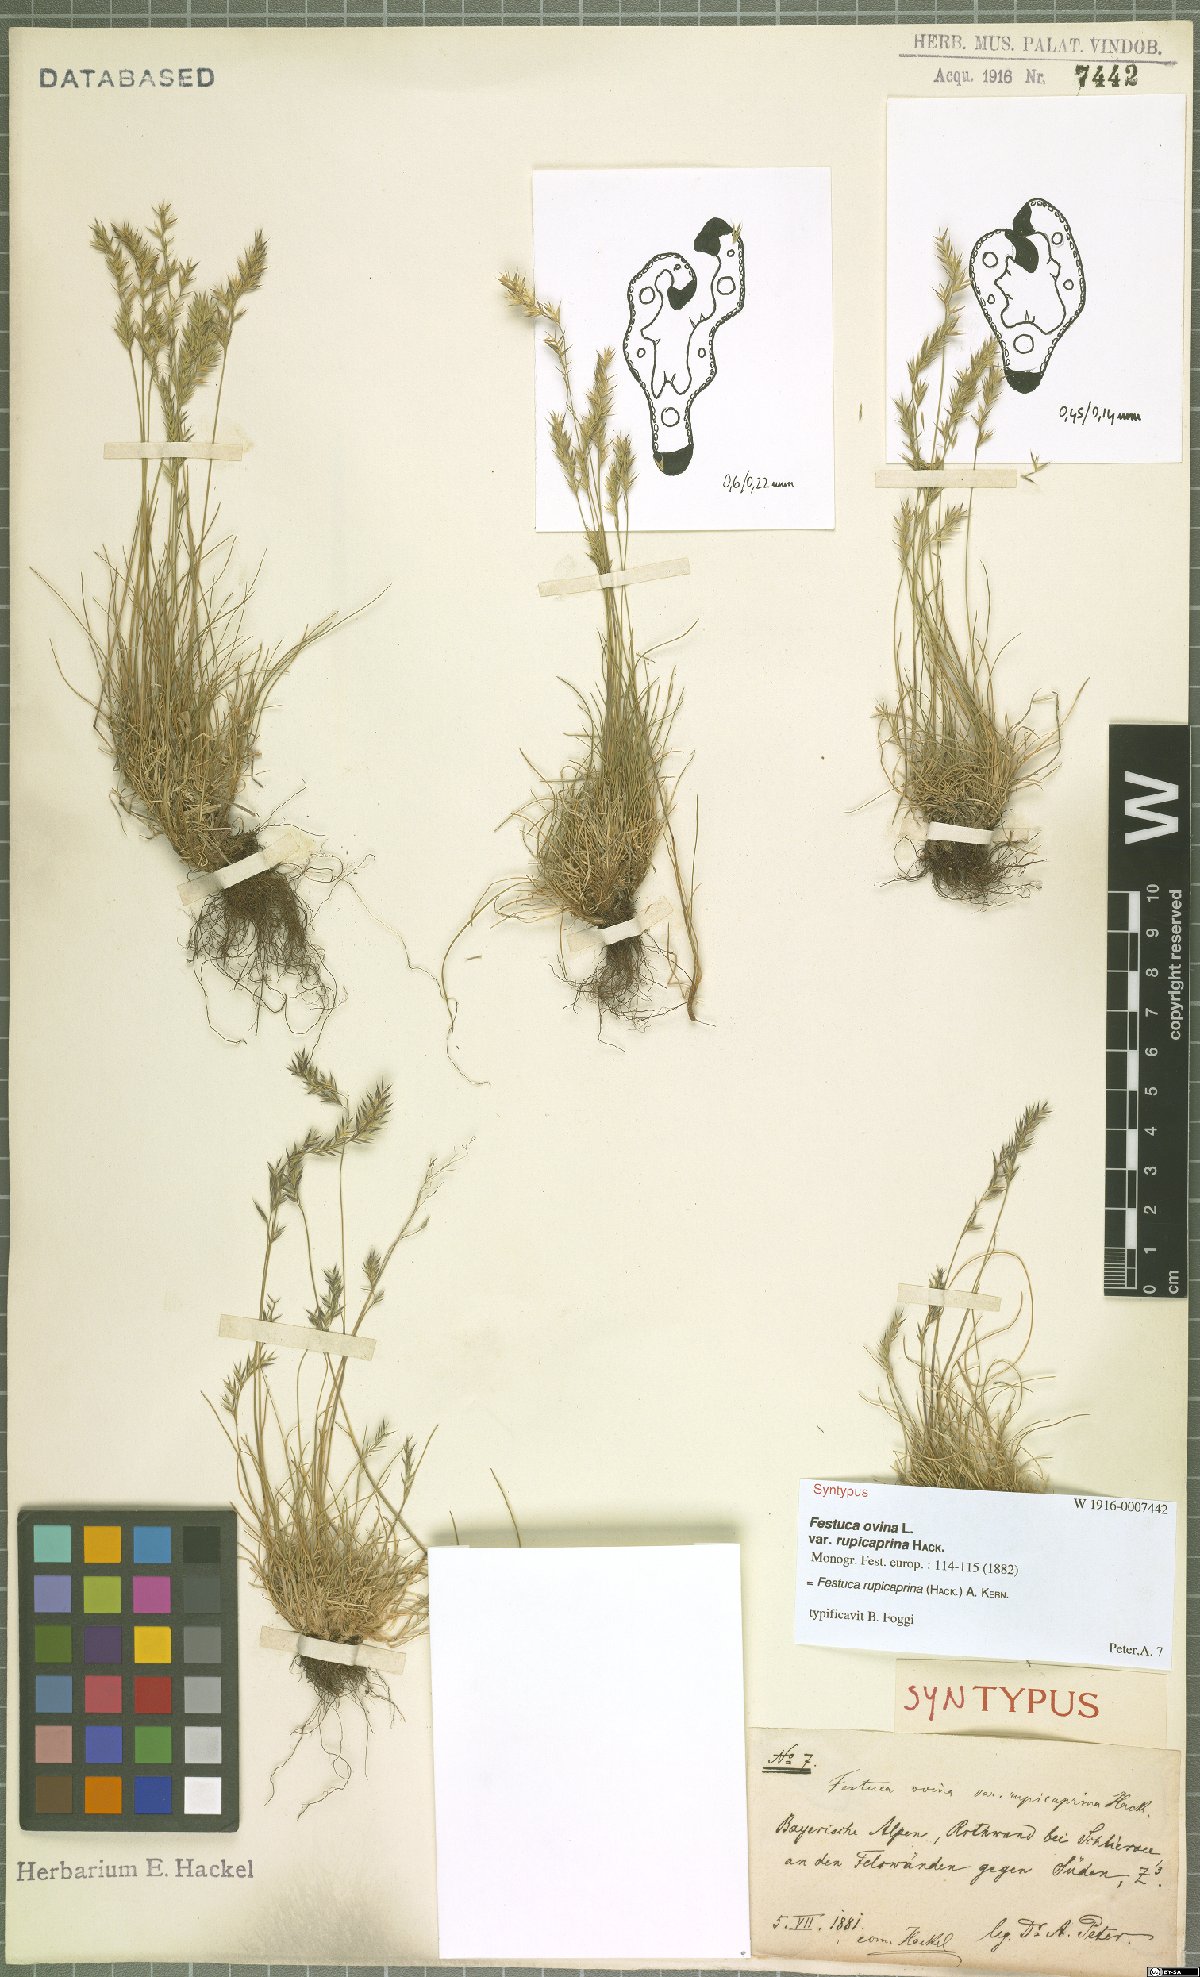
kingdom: Plantae
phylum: Tracheophyta
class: Liliopsida
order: Poales
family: Poaceae
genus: Festuca
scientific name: Festuca rupicaprina
